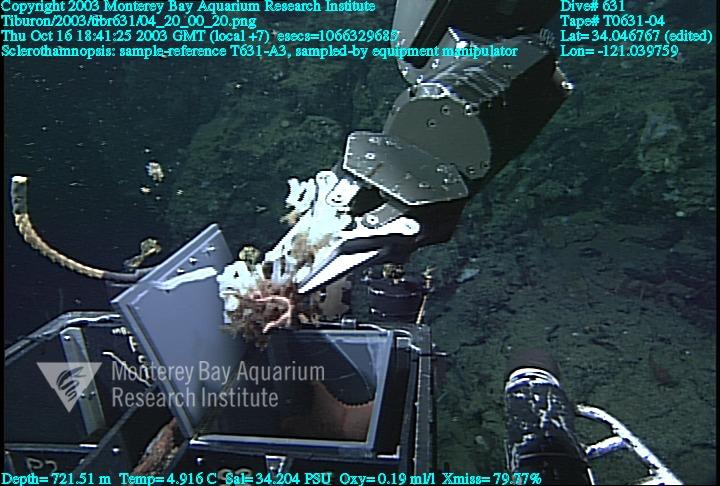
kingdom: Animalia
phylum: Porifera
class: Hexactinellida
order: Sceptrulophora
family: Tretodictyidae
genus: Sclerothamnopsis
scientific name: Sclerothamnopsis
